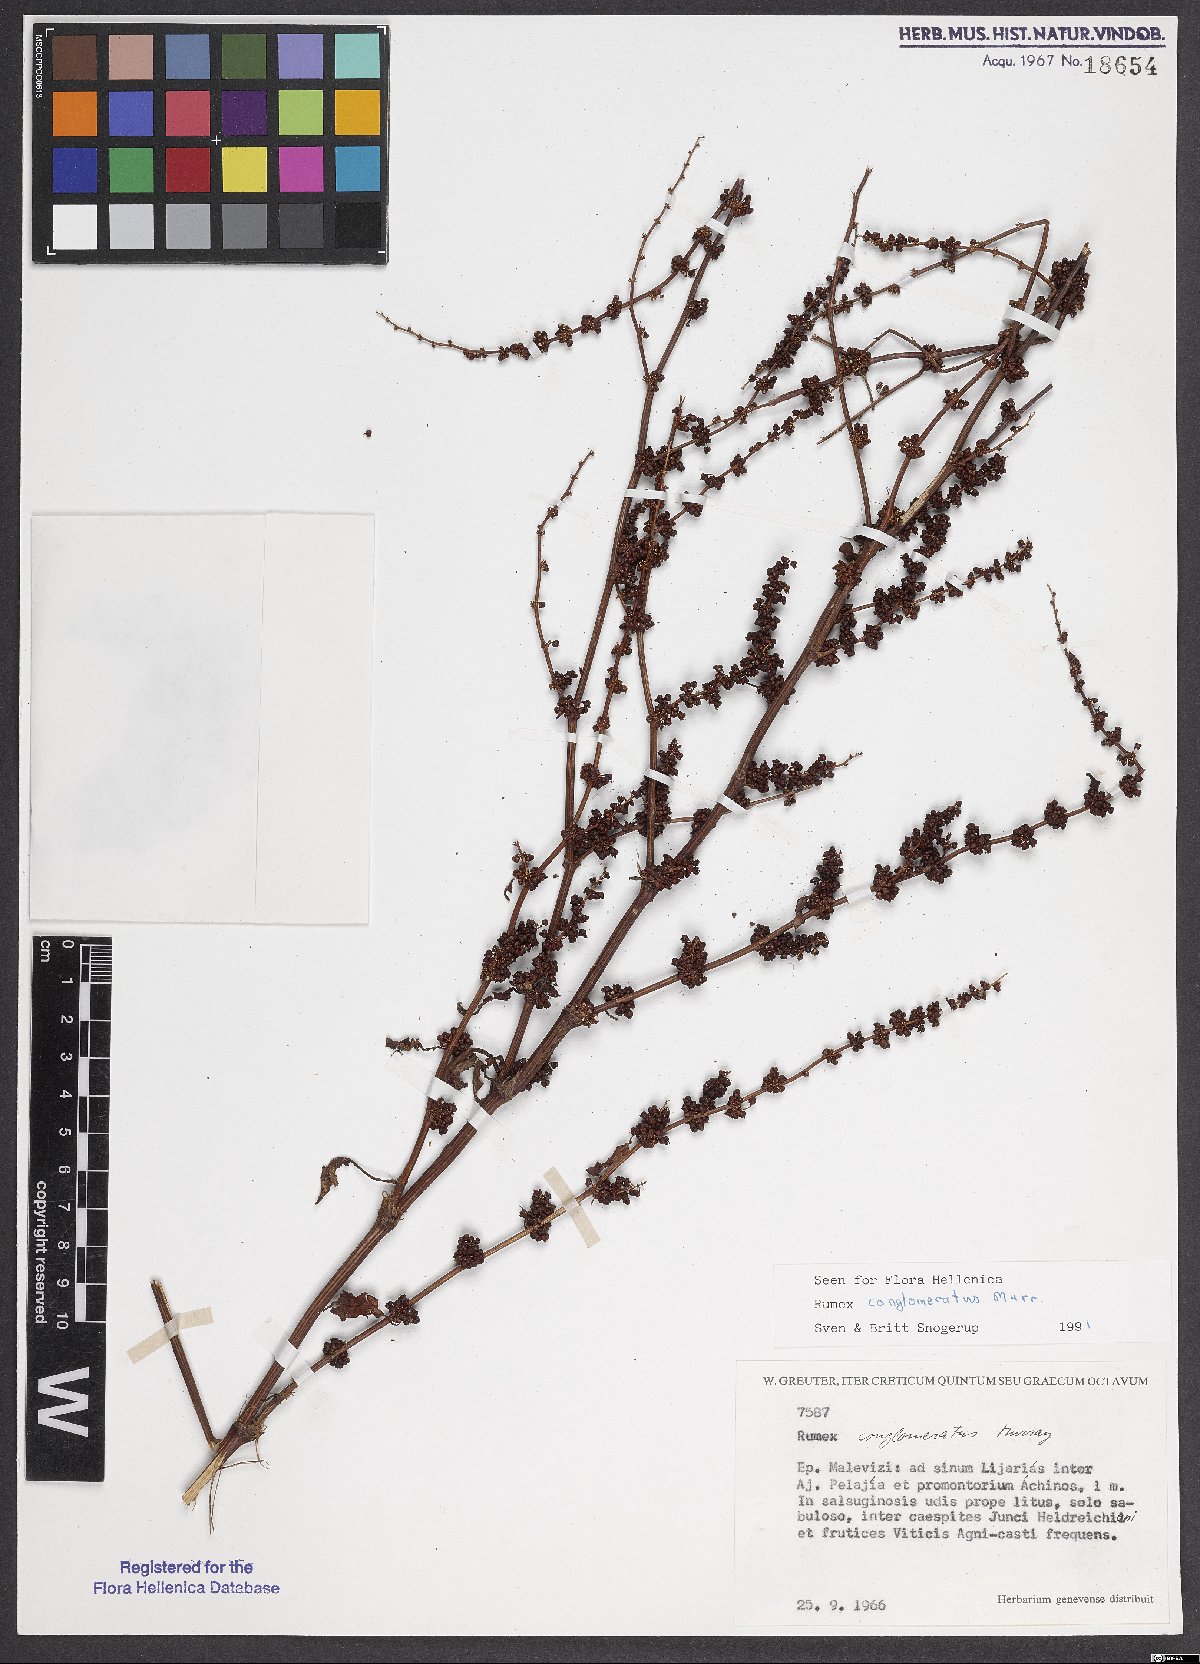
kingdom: Plantae
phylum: Tracheophyta
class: Magnoliopsida
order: Caryophyllales
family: Polygonaceae
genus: Rumex
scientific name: Rumex conglomeratus
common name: Clustered dock
